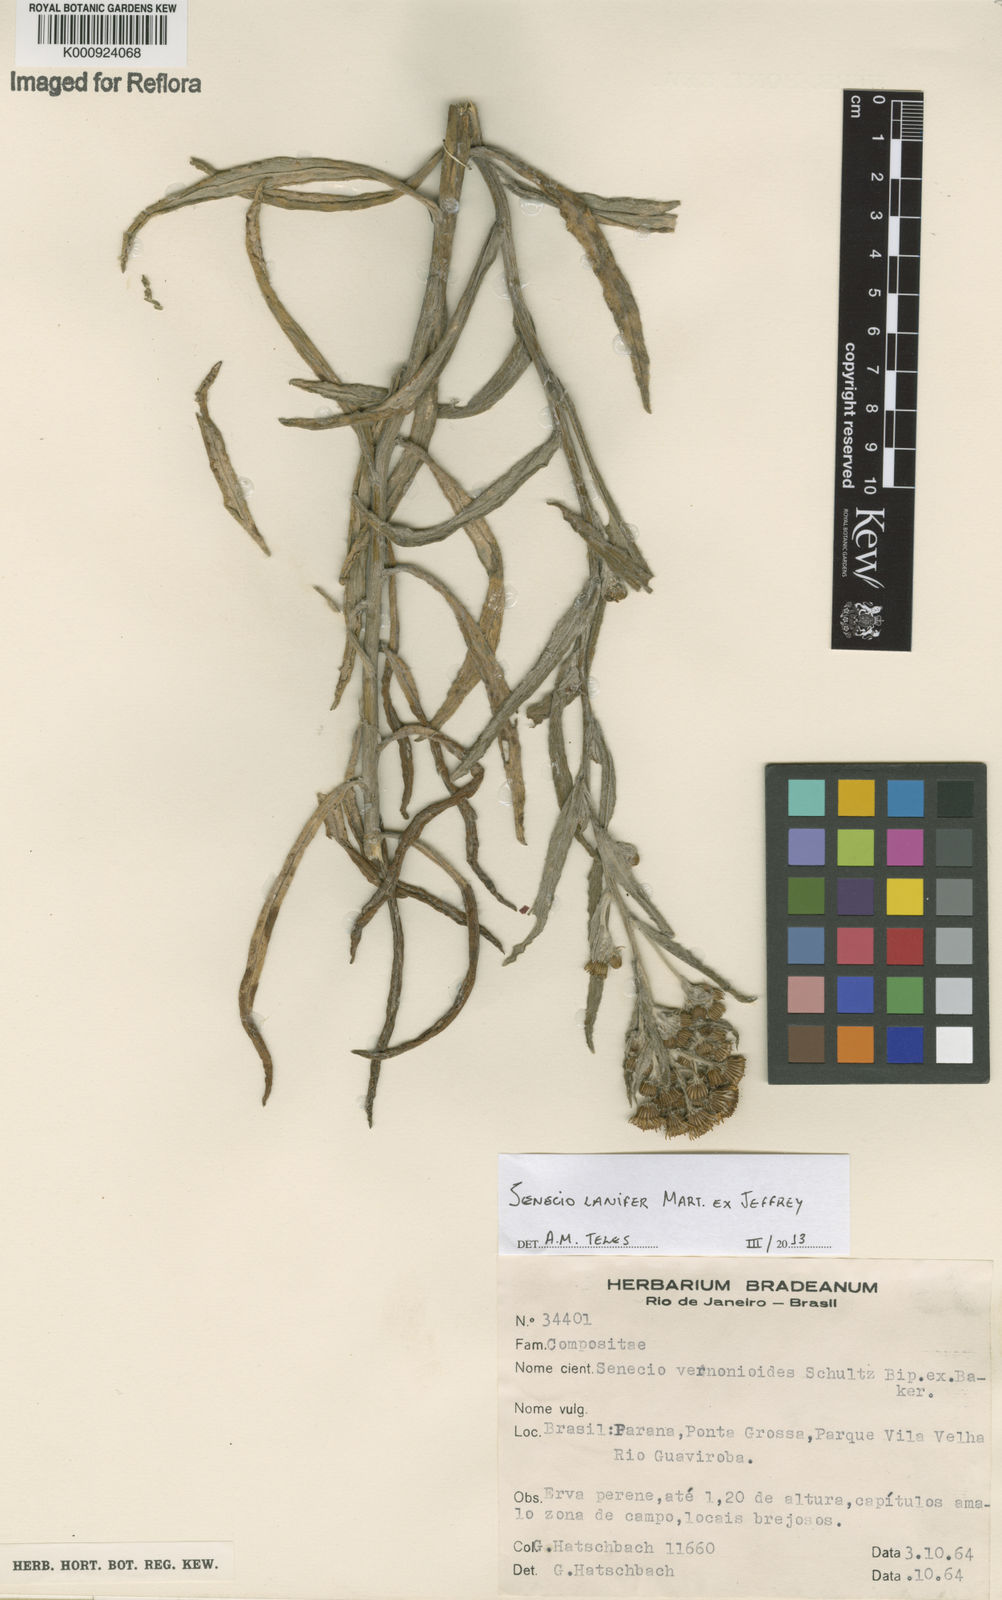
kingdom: Plantae
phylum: Tracheophyta
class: Magnoliopsida
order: Asterales
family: Asteraceae
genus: Senecio
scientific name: Senecio lanifer
